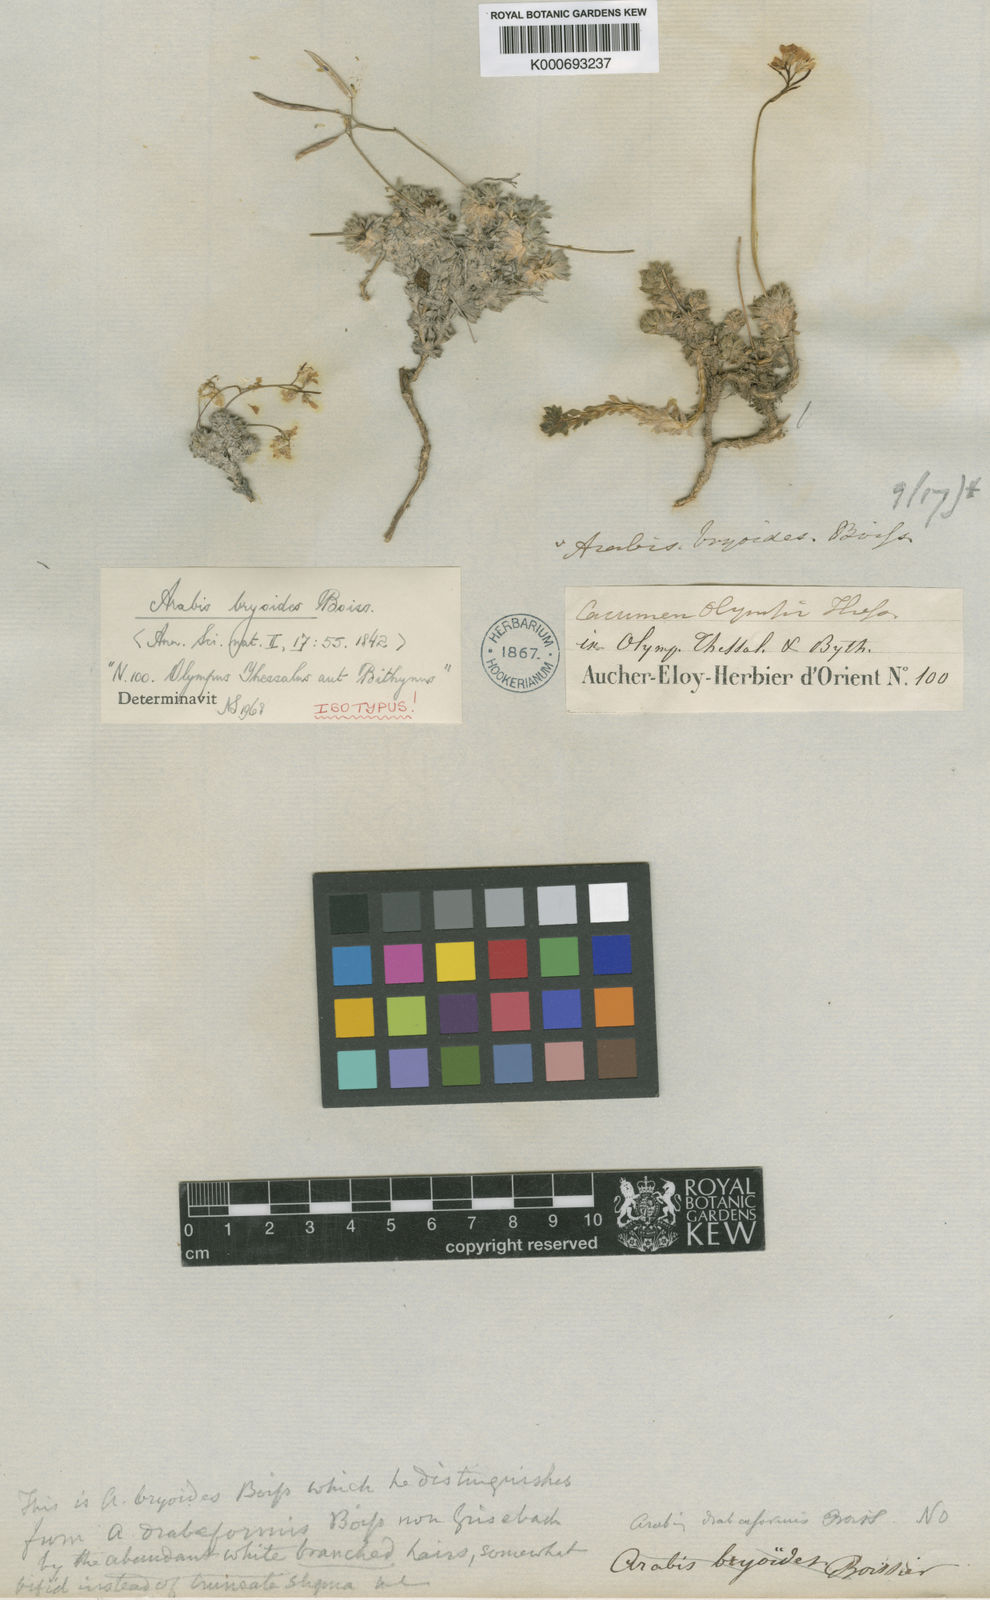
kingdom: Plantae
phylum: Tracheophyta
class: Magnoliopsida
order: Brassicales
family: Brassicaceae
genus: Arabis
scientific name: Arabis bryoides
